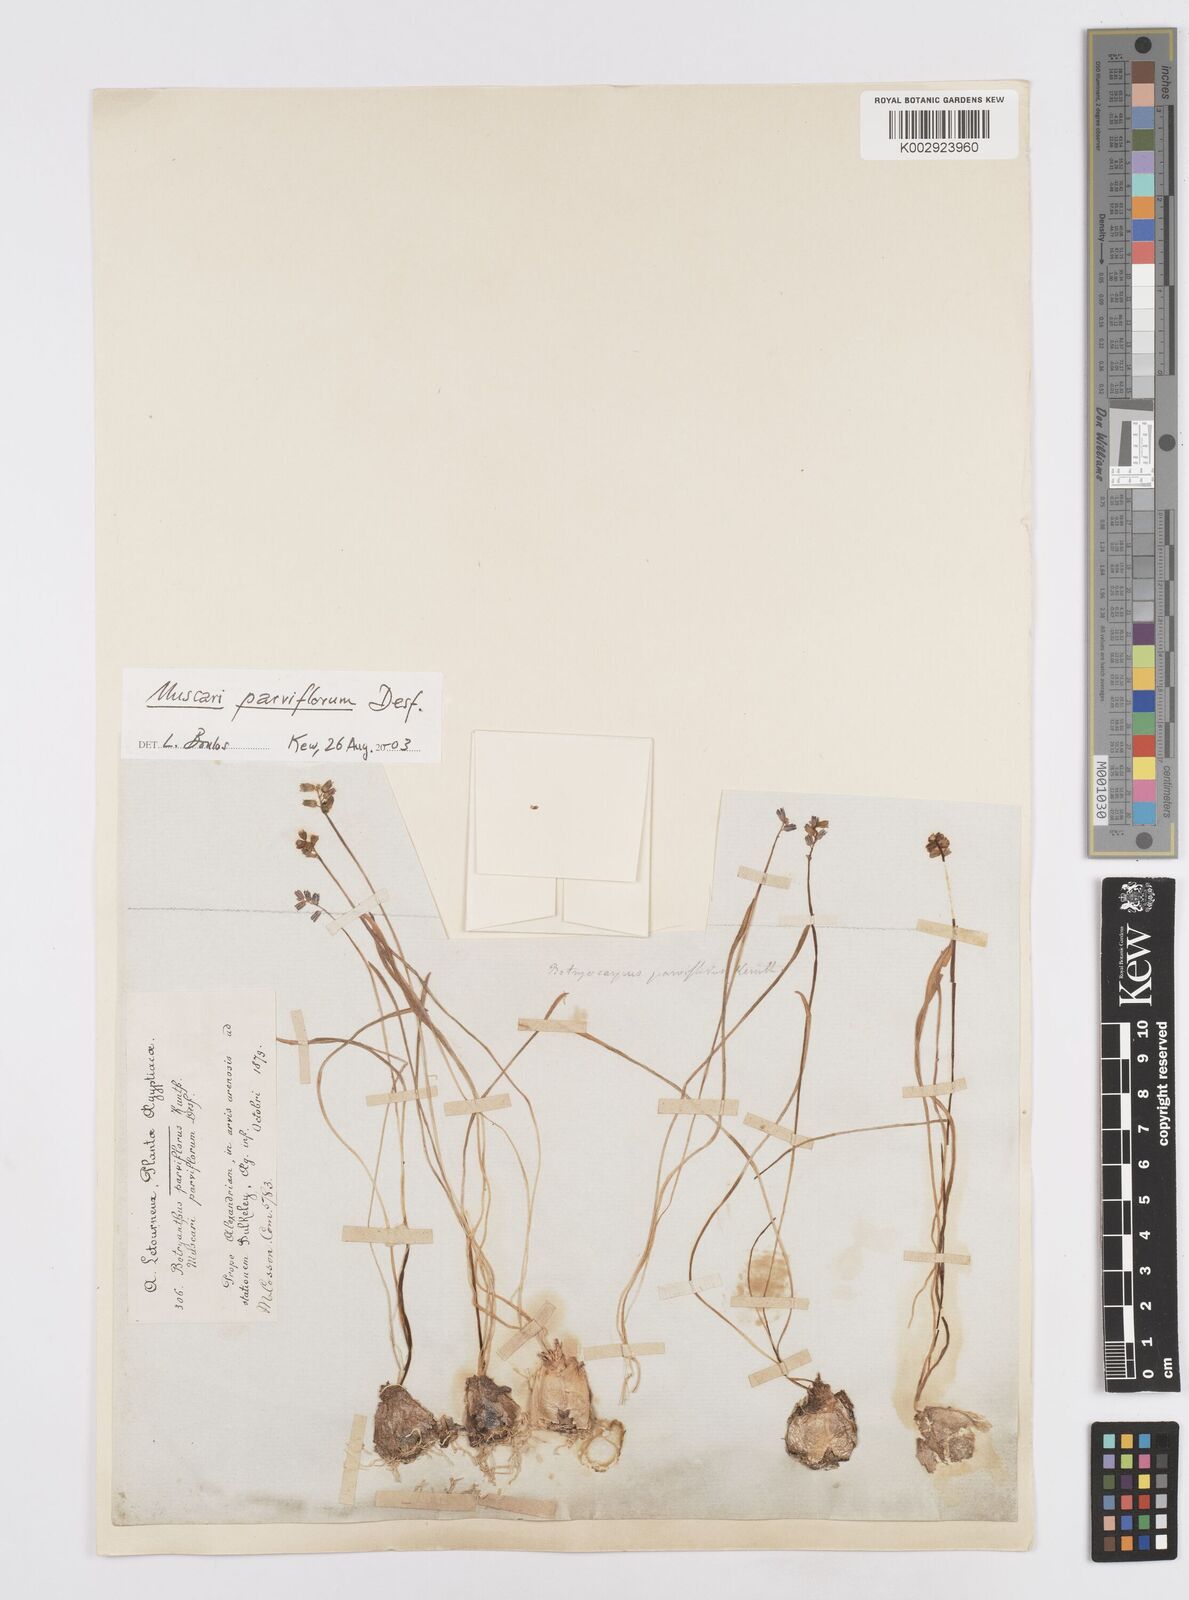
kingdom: Plantae
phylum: Tracheophyta
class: Liliopsida
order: Asparagales
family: Asparagaceae
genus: Muscari
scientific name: Muscari parviflorum
